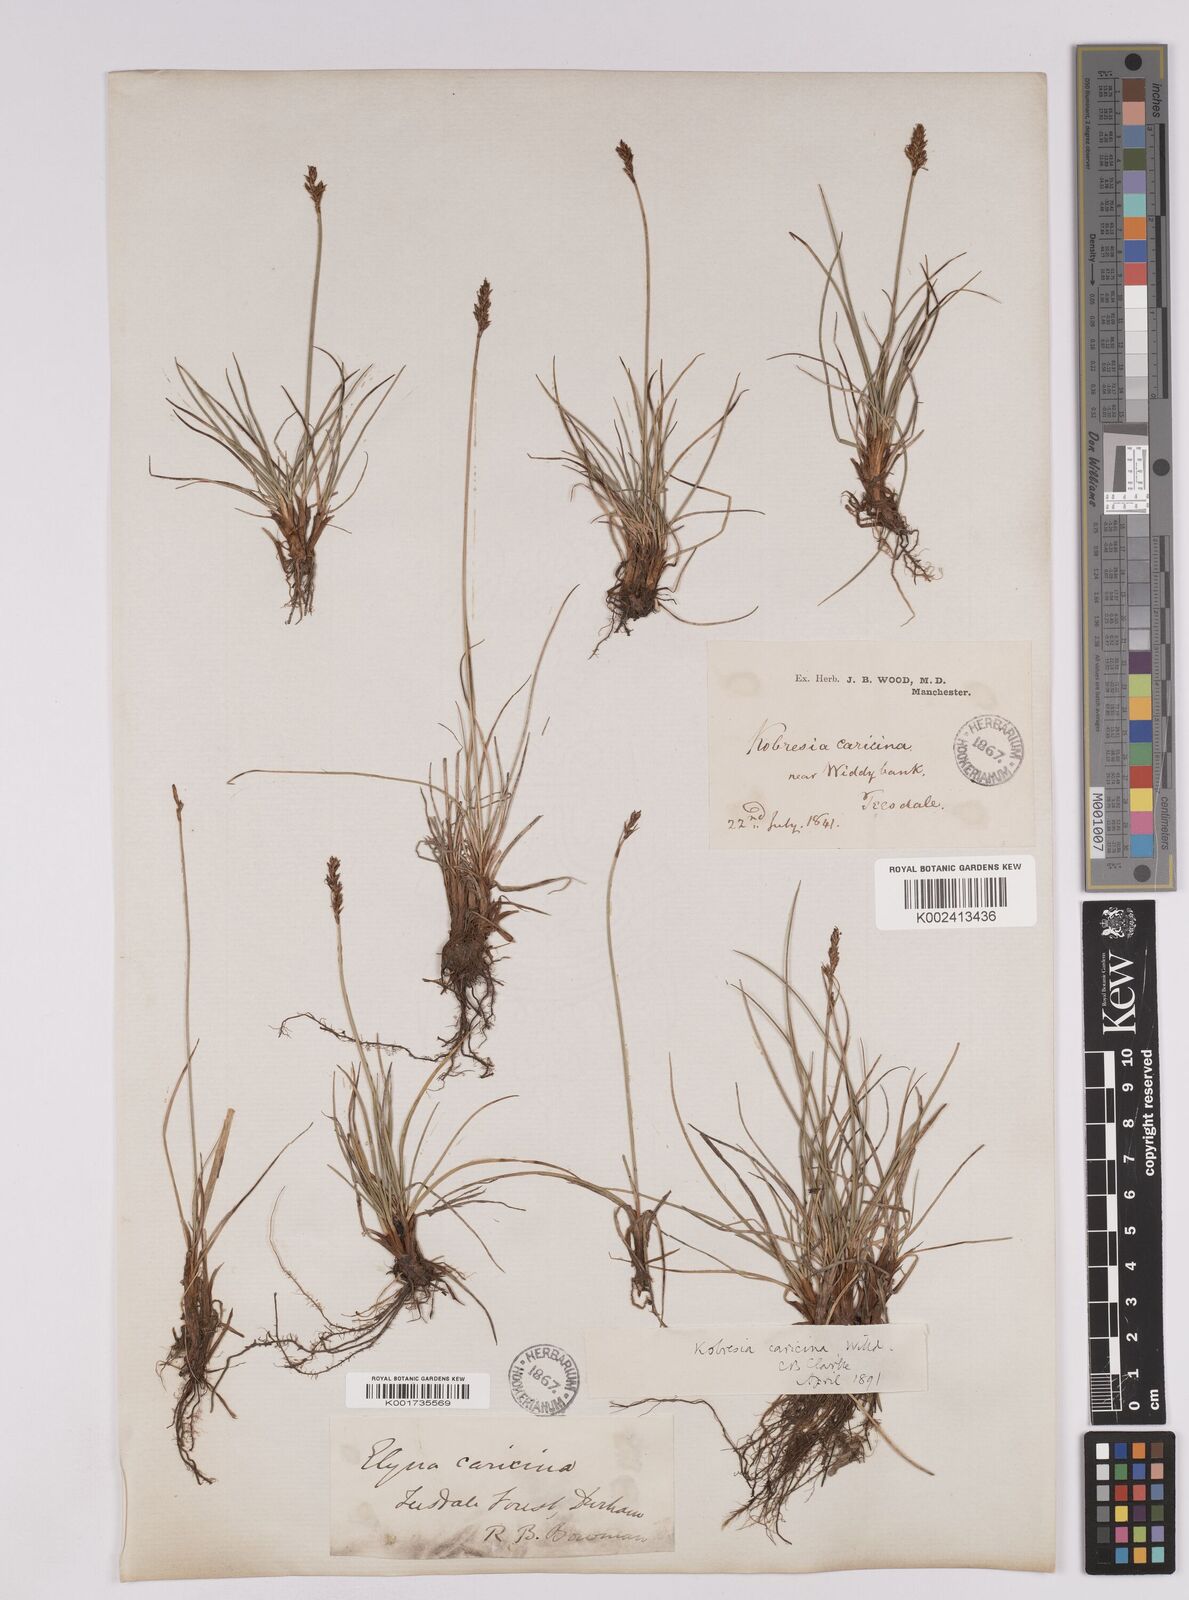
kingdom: Plantae
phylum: Tracheophyta
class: Liliopsida
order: Poales
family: Cyperaceae
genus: Carex
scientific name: Carex simpliciuscula
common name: Simple bog sedge
